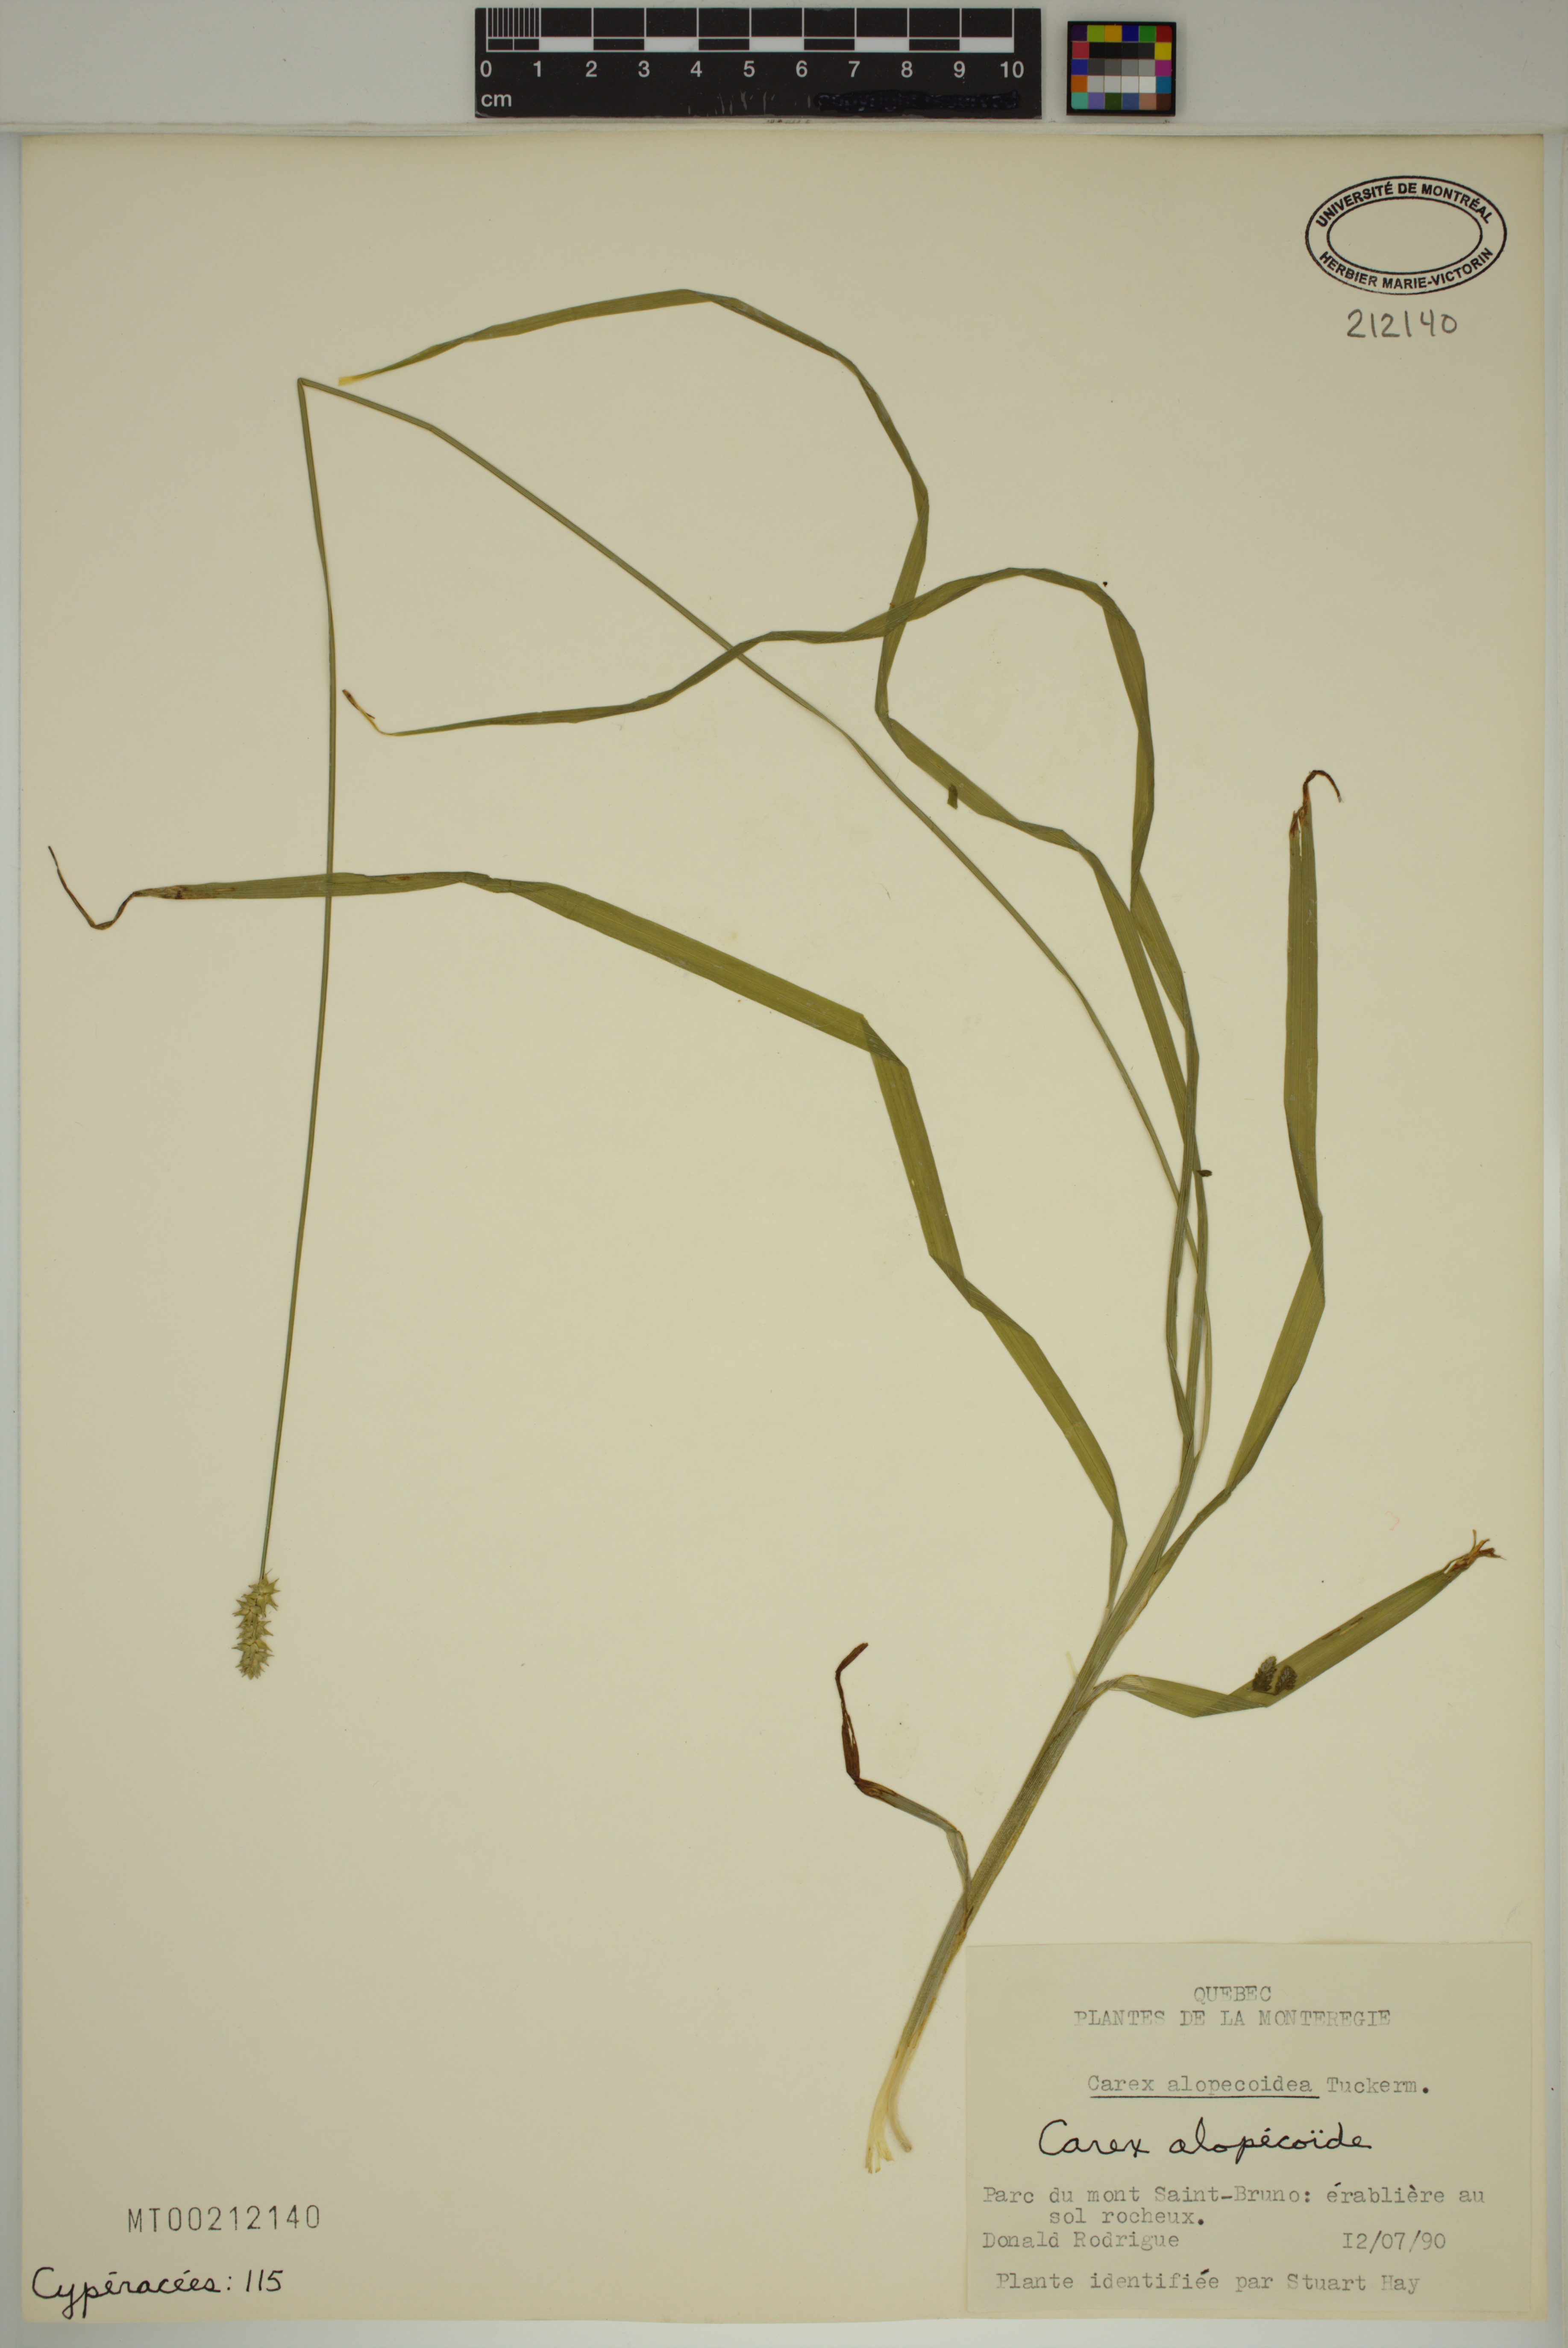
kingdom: Plantae
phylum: Tracheophyta
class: Liliopsida
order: Poales
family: Cyperaceae
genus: Carex
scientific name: Carex alopecoidea
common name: Brown-headed fox sedge
